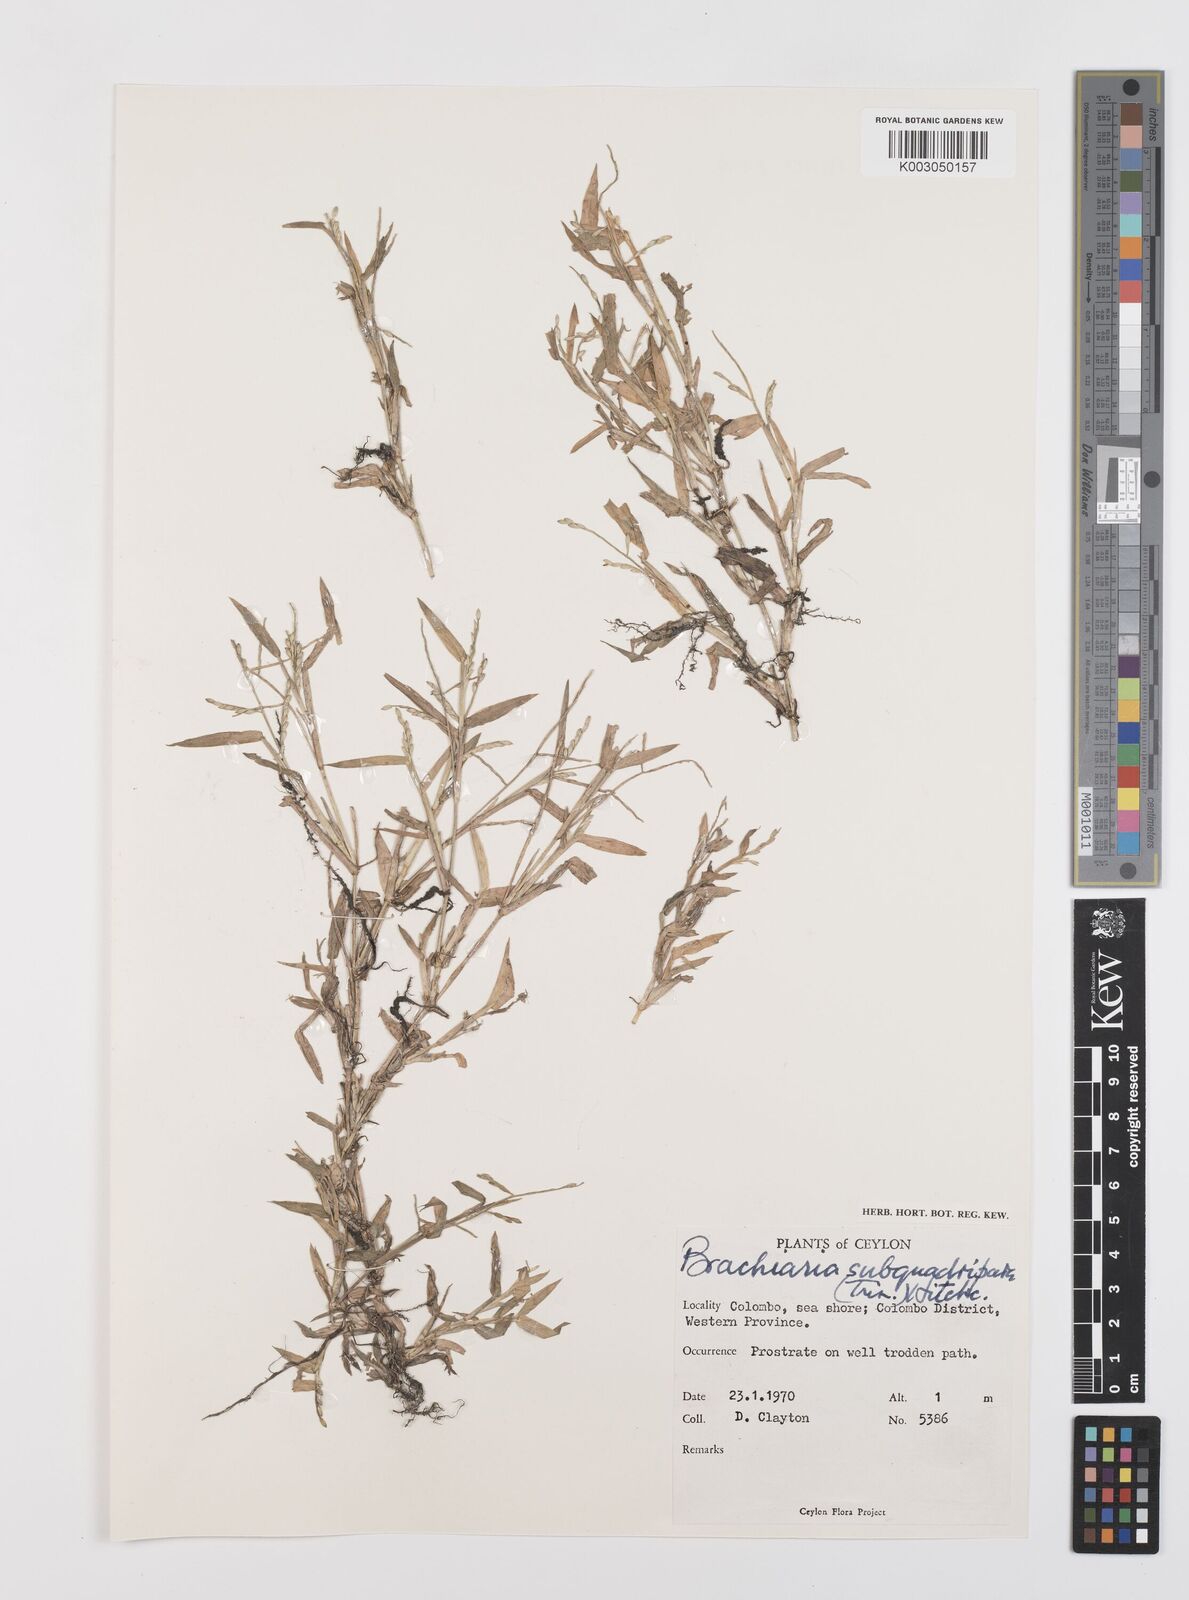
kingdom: Plantae
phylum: Tracheophyta
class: Liliopsida
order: Poales
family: Poaceae
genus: Urochloa
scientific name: Urochloa subquadripara
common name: Armgrass millet
